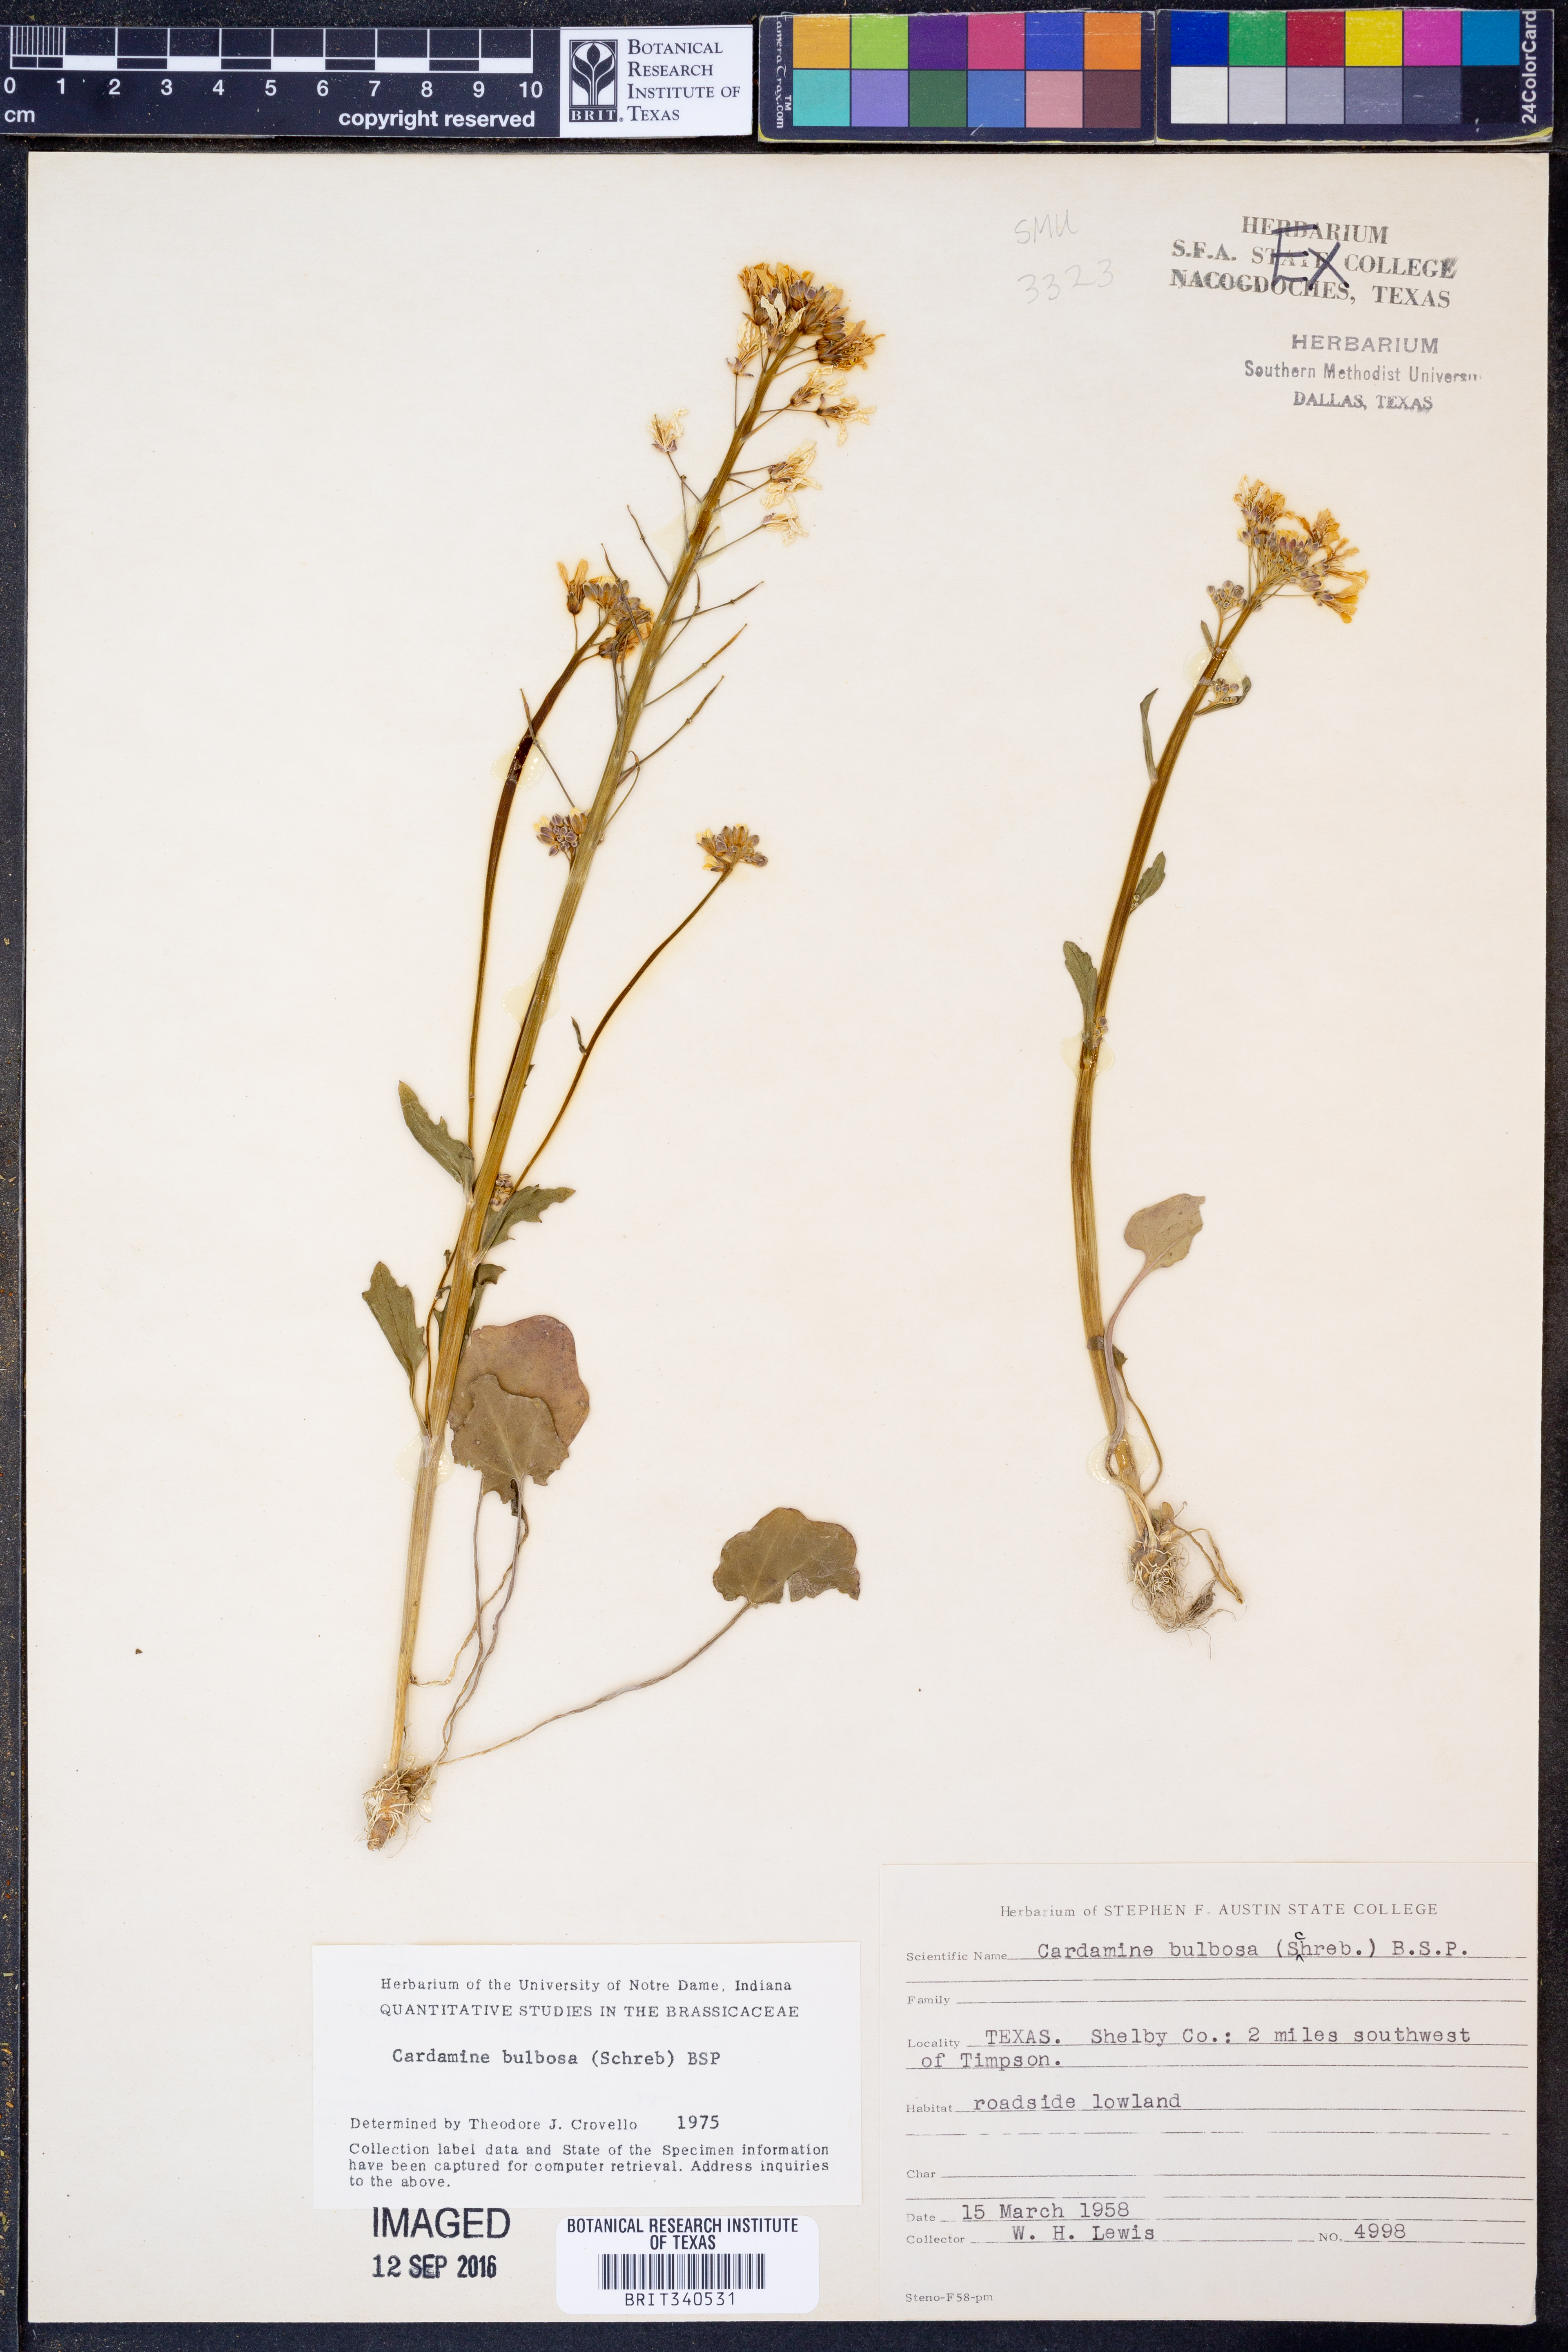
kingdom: Plantae
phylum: Tracheophyta
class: Magnoliopsida
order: Brassicales
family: Brassicaceae
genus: Cardamine
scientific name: Cardamine bulbosa
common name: Spring cress
